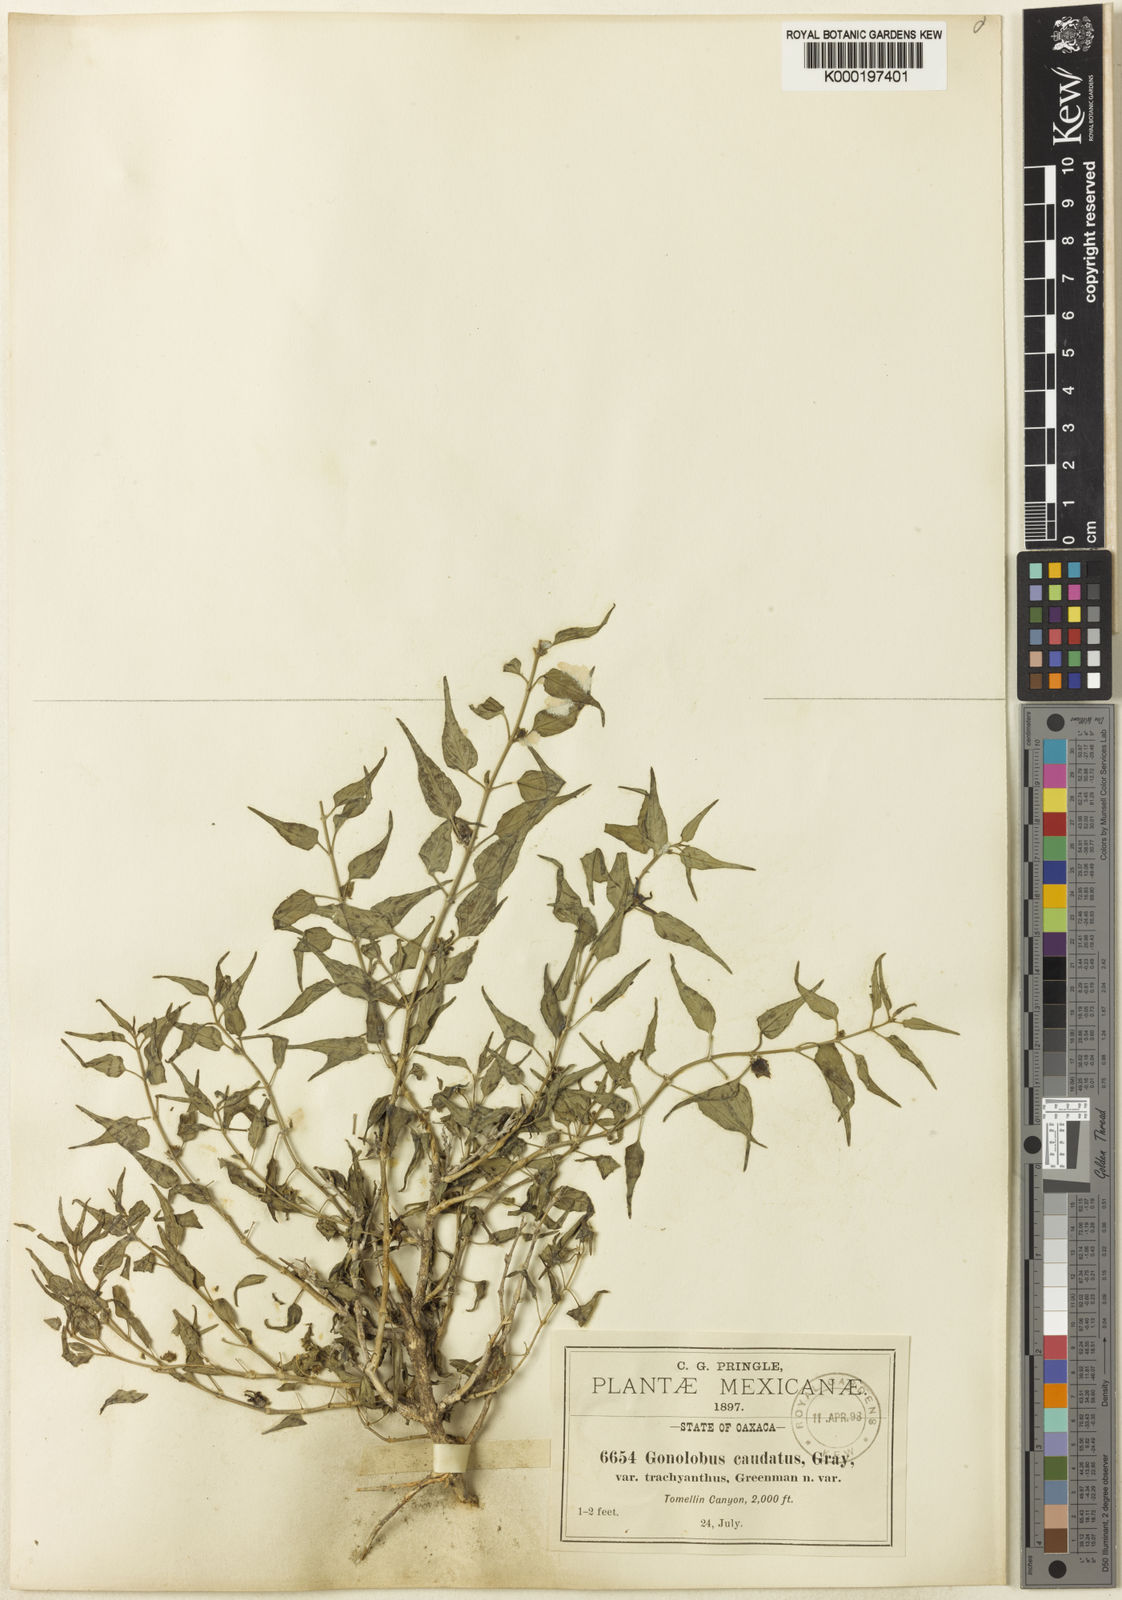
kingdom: Plantae
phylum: Tracheophyta
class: Magnoliopsida
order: Gentianales
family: Apocynaceae
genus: Talayotea
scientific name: Talayotea caudata
